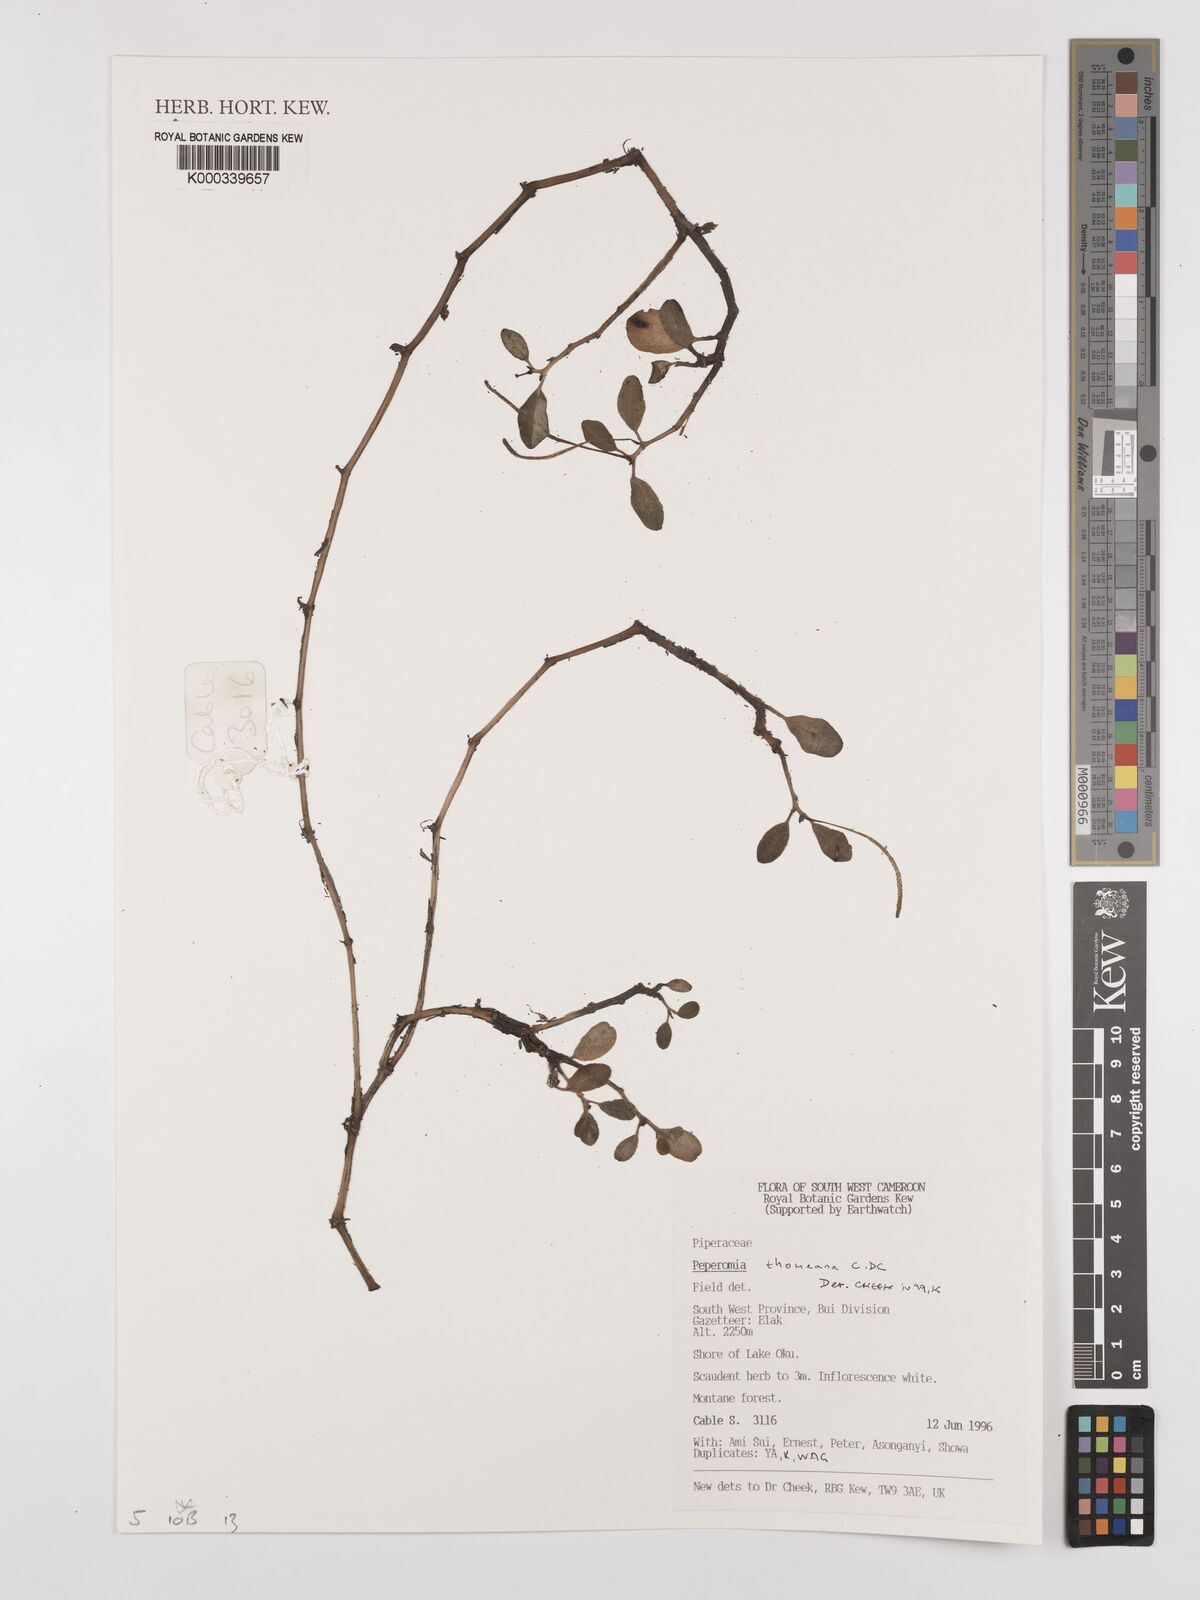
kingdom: Plantae
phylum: Tracheophyta
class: Magnoliopsida
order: Piperales
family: Piperaceae
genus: Peperomia
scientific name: Peperomia thomeana
